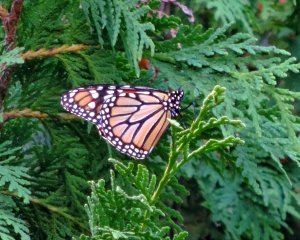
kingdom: Animalia
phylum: Arthropoda
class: Insecta
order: Lepidoptera
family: Nymphalidae
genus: Danaus
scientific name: Danaus plexippus
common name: Monarch
